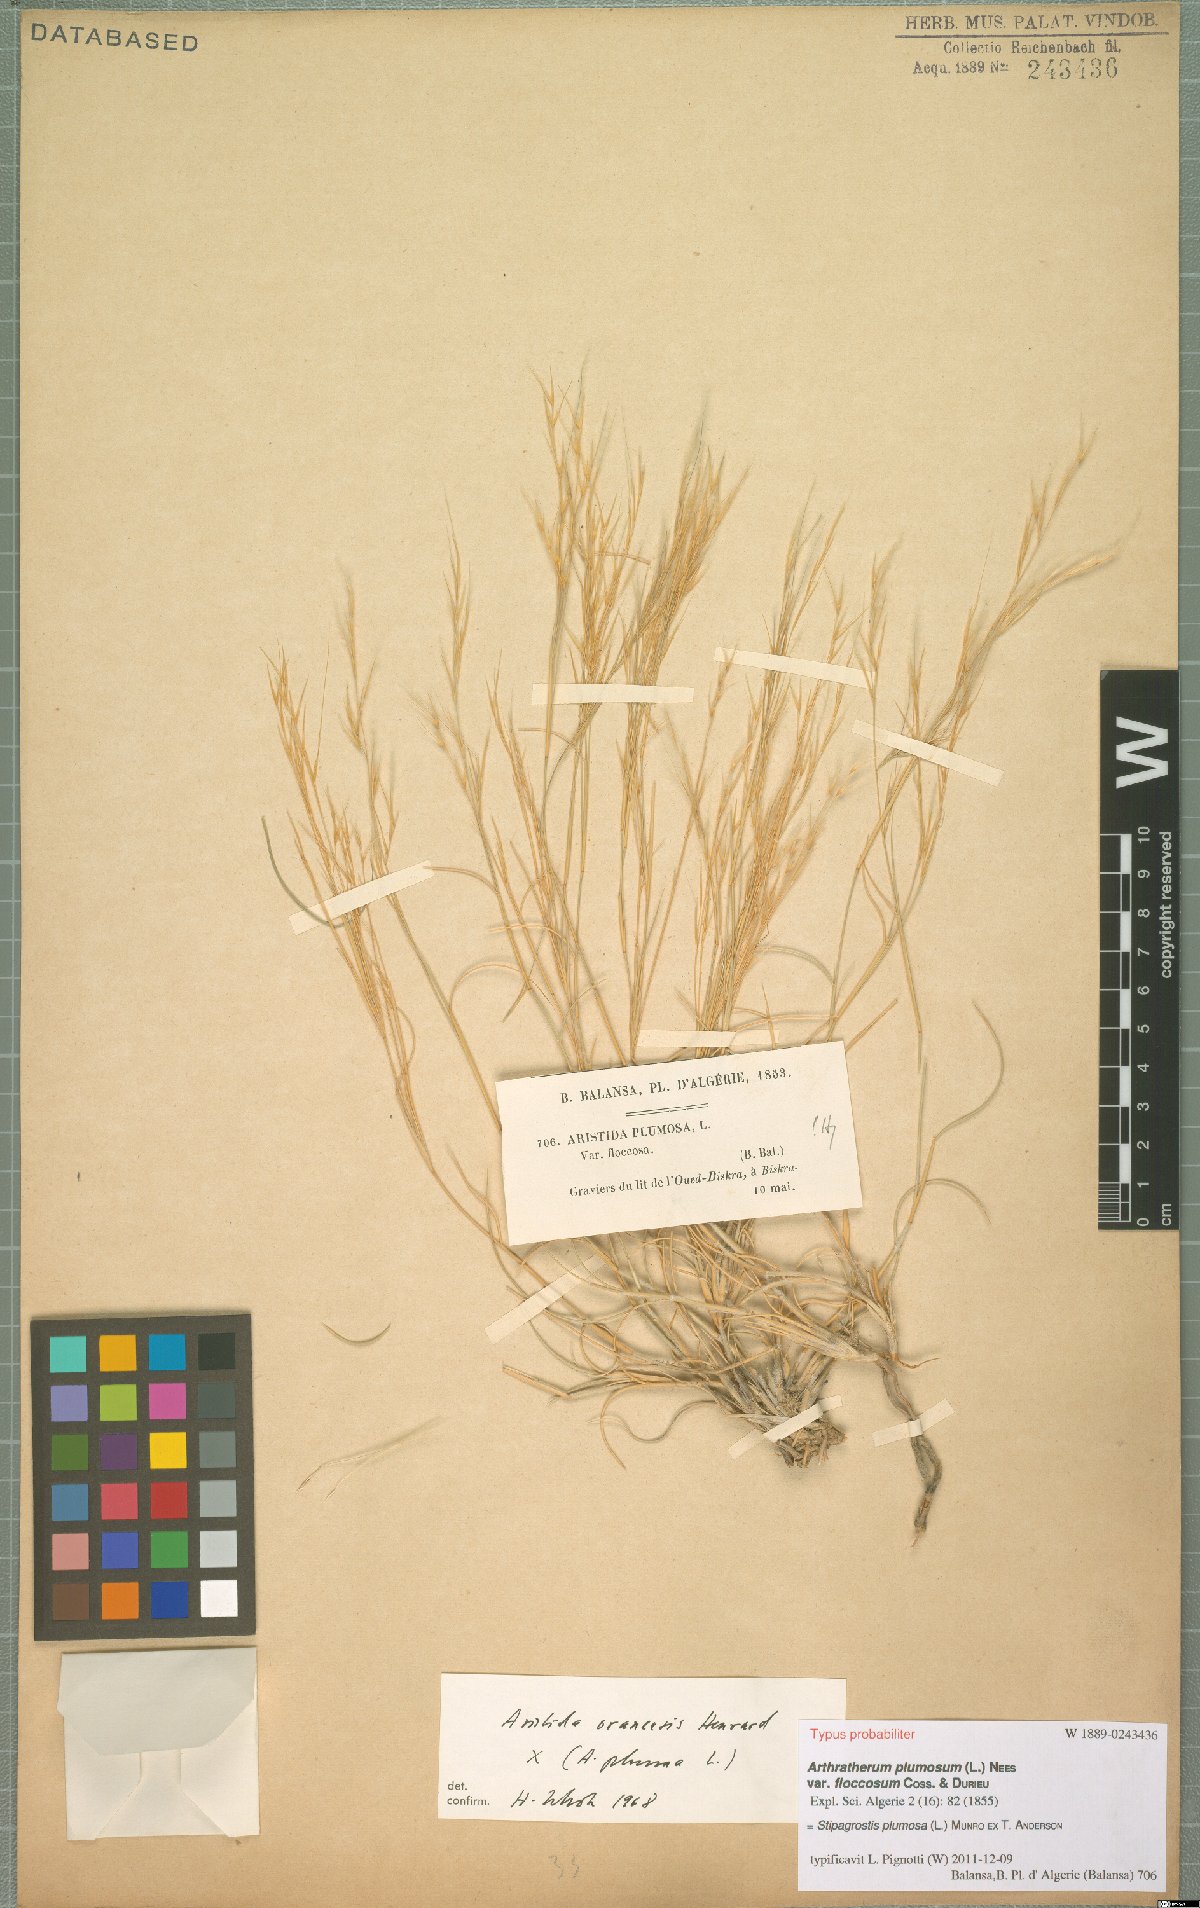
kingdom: Plantae
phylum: Tracheophyta
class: Liliopsida
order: Poales
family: Poaceae
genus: Stipagrostis
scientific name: Stipagrostis plumosa
